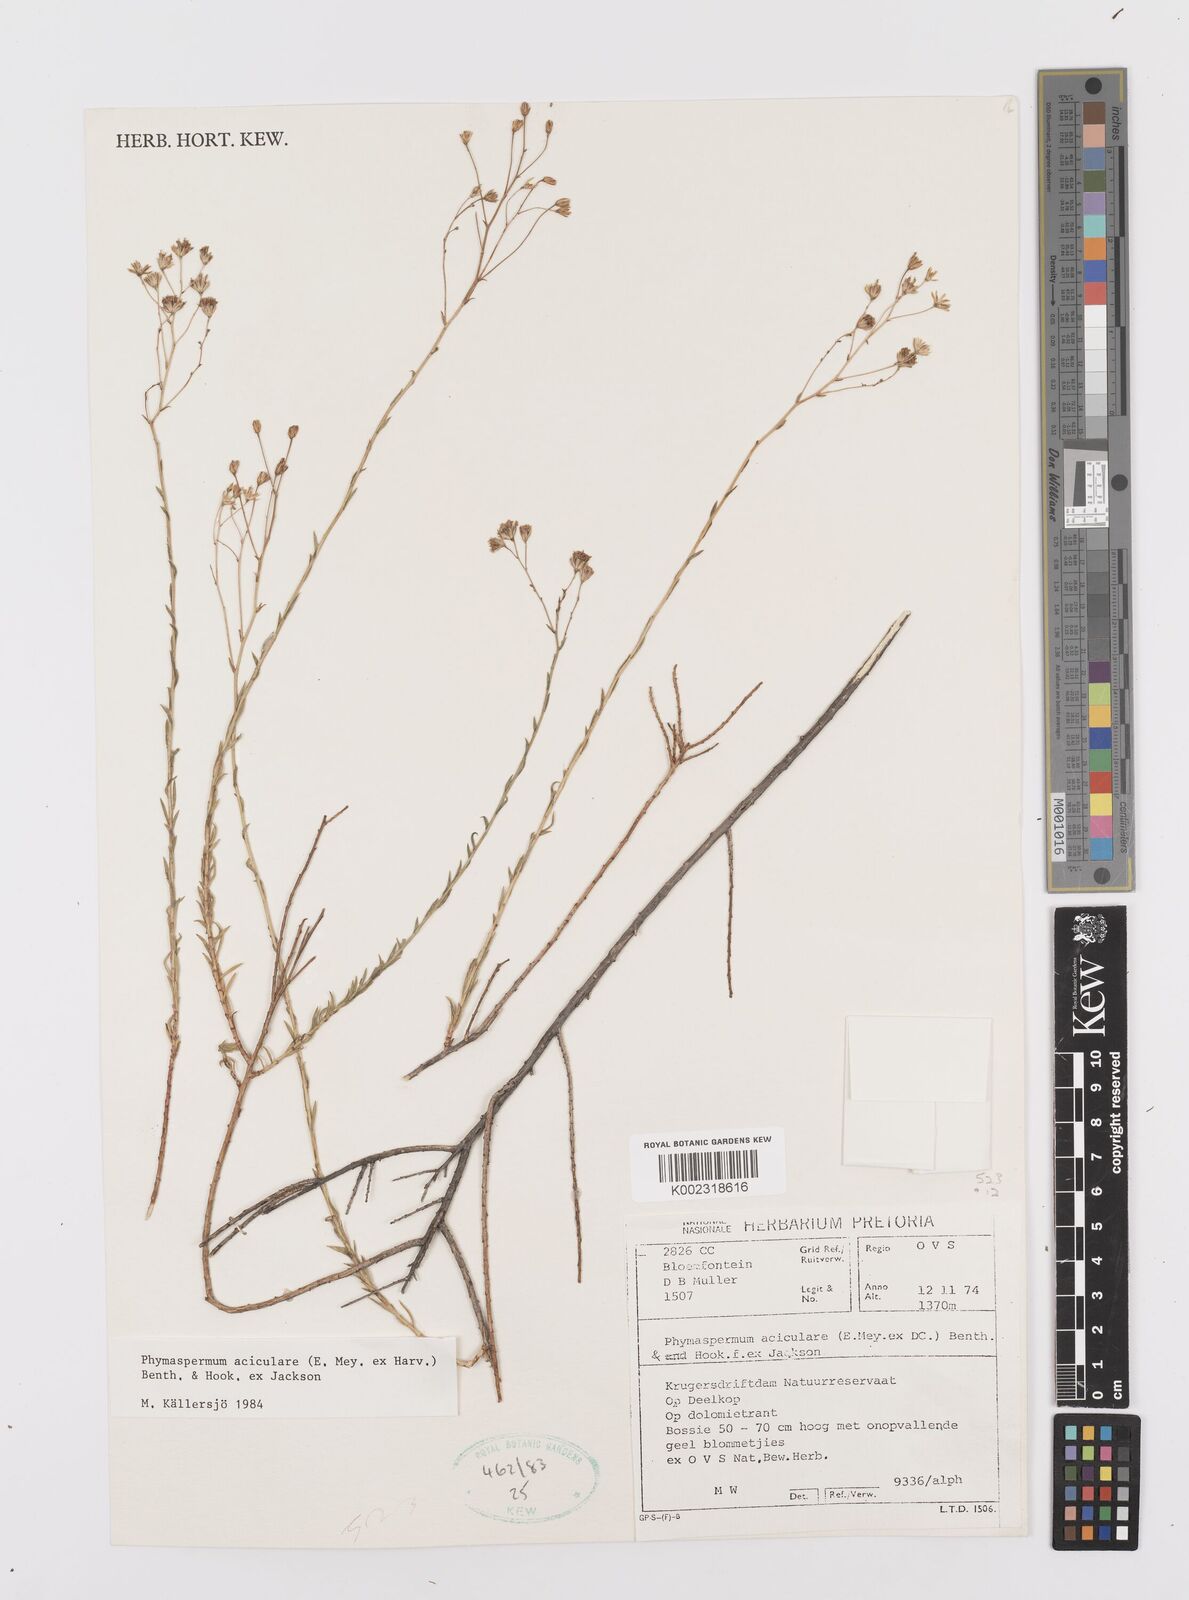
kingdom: Plantae
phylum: Tracheophyta
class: Magnoliopsida
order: Asterales
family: Asteraceae
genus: Phymaspermum
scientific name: Phymaspermum aciculare
